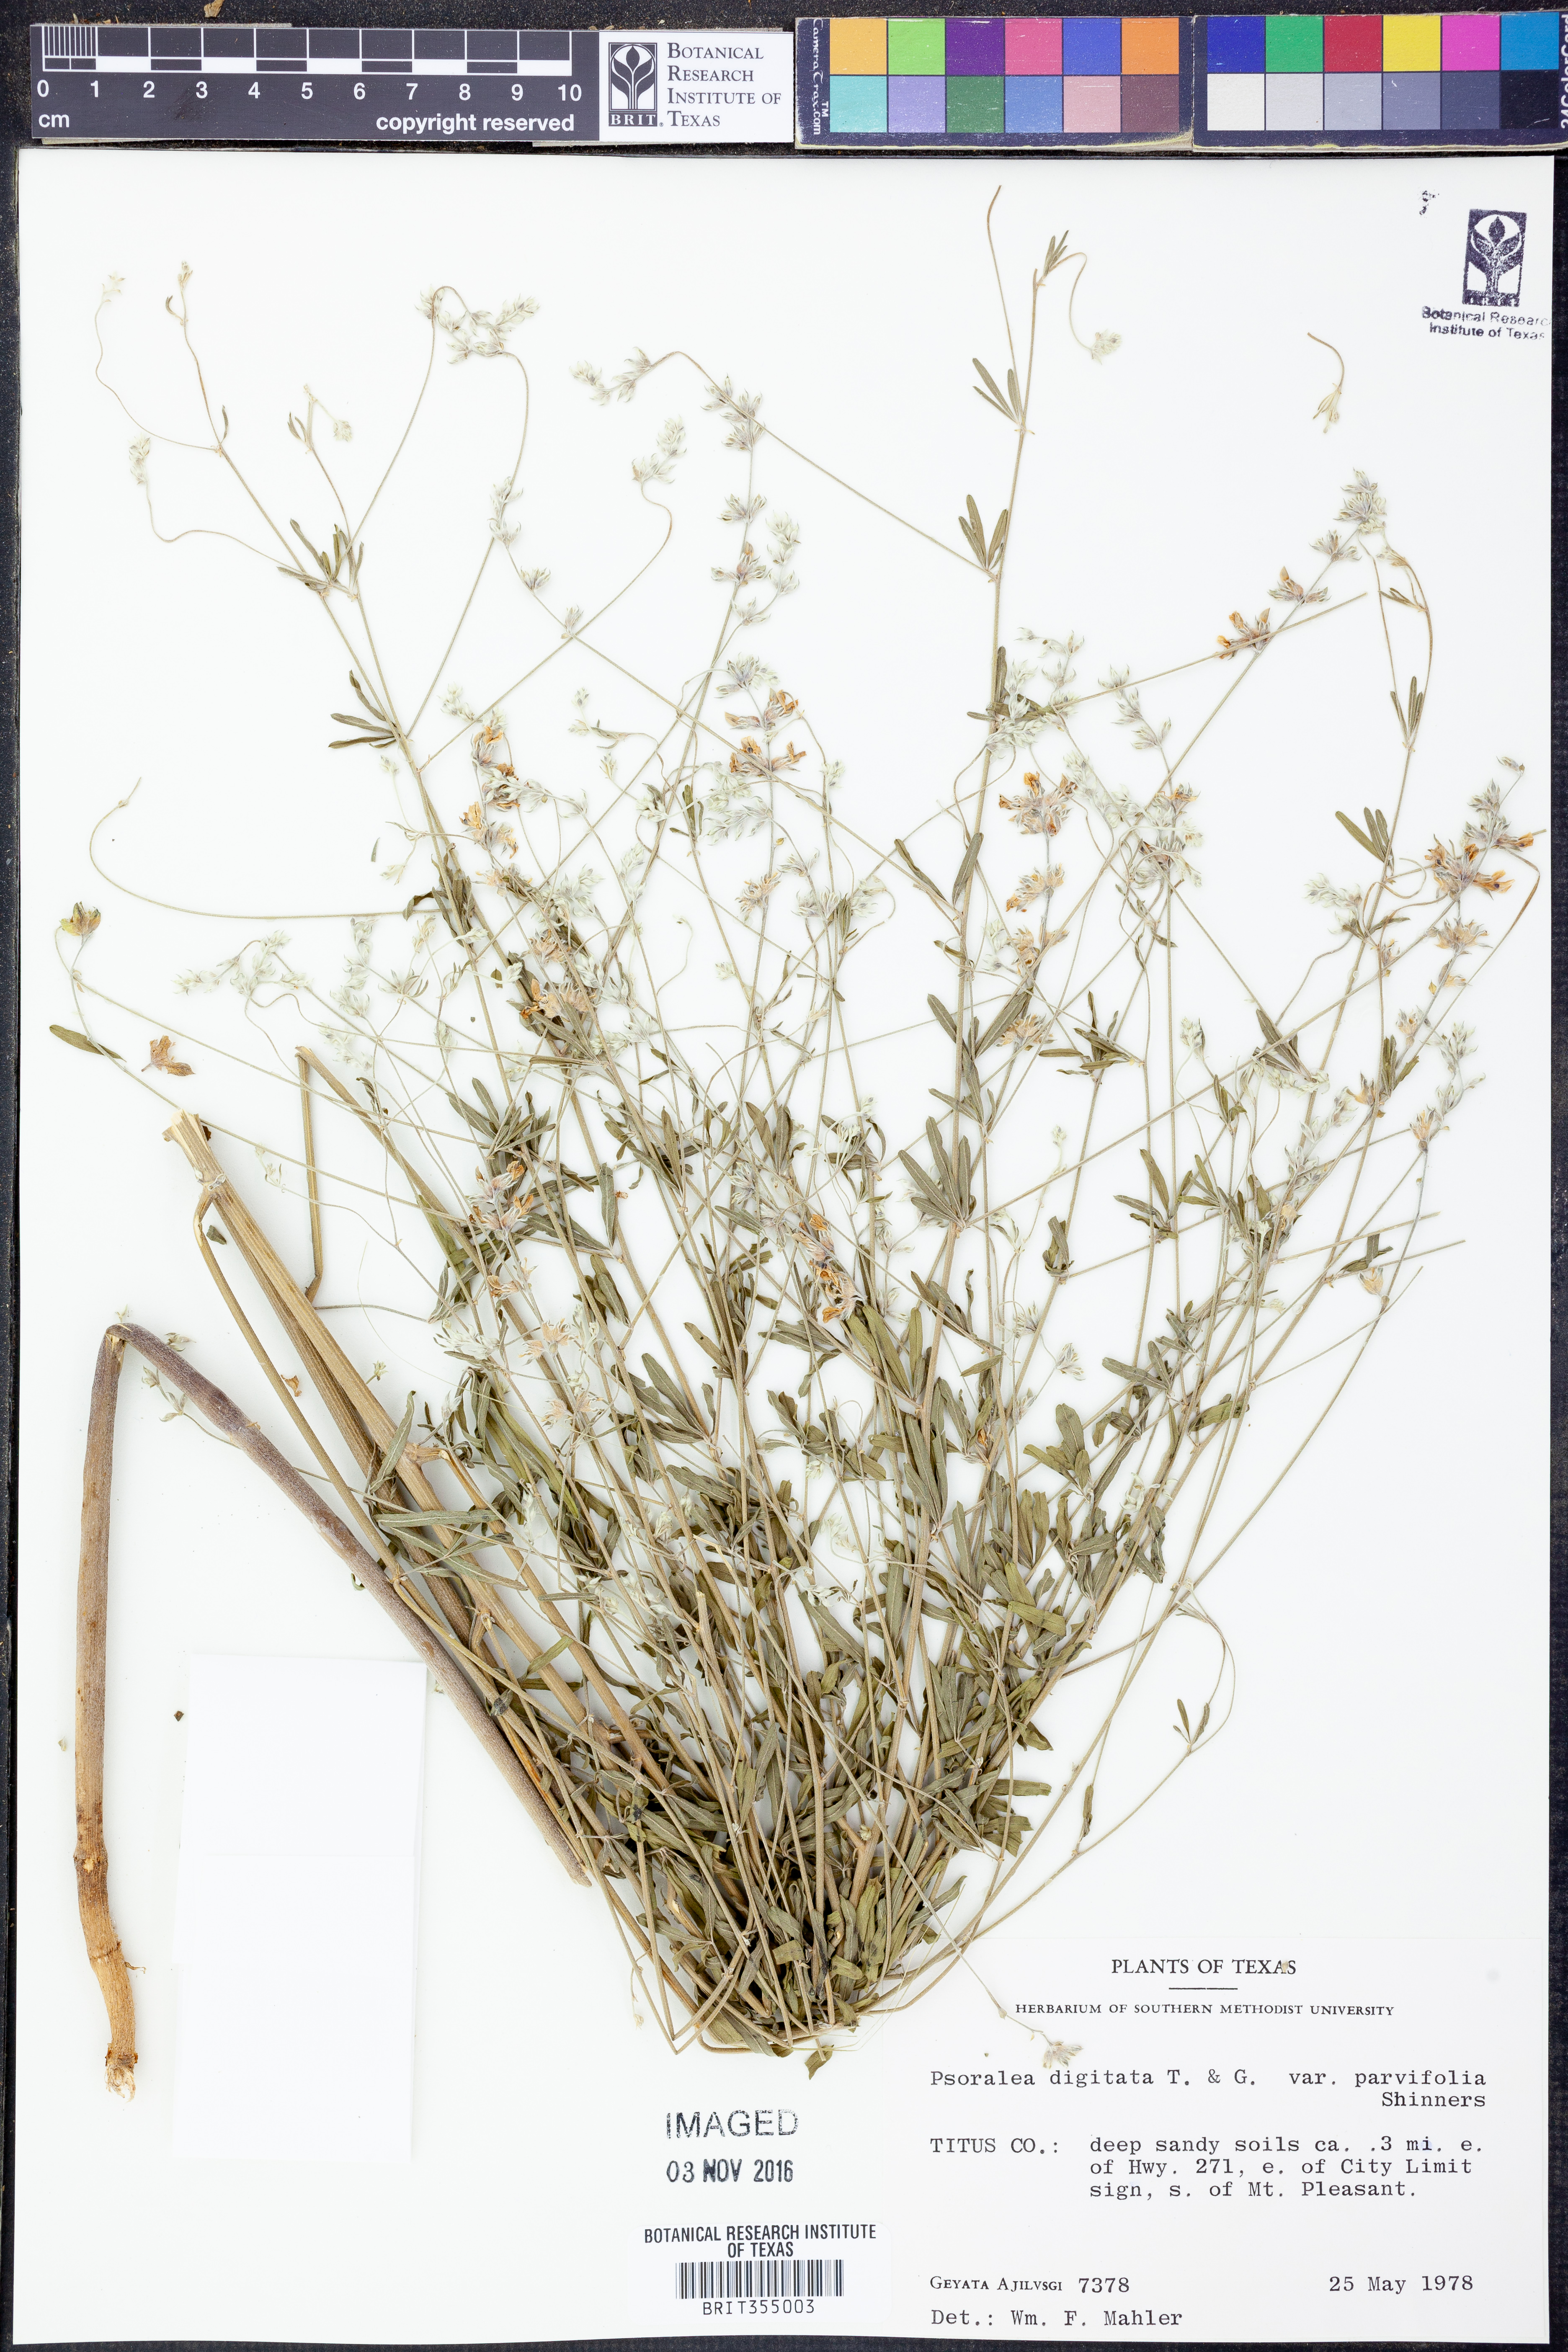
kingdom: Plantae
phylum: Tracheophyta
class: Magnoliopsida
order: Fabales
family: Fabaceae
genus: Pediomelum
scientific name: Pediomelum digitatum
